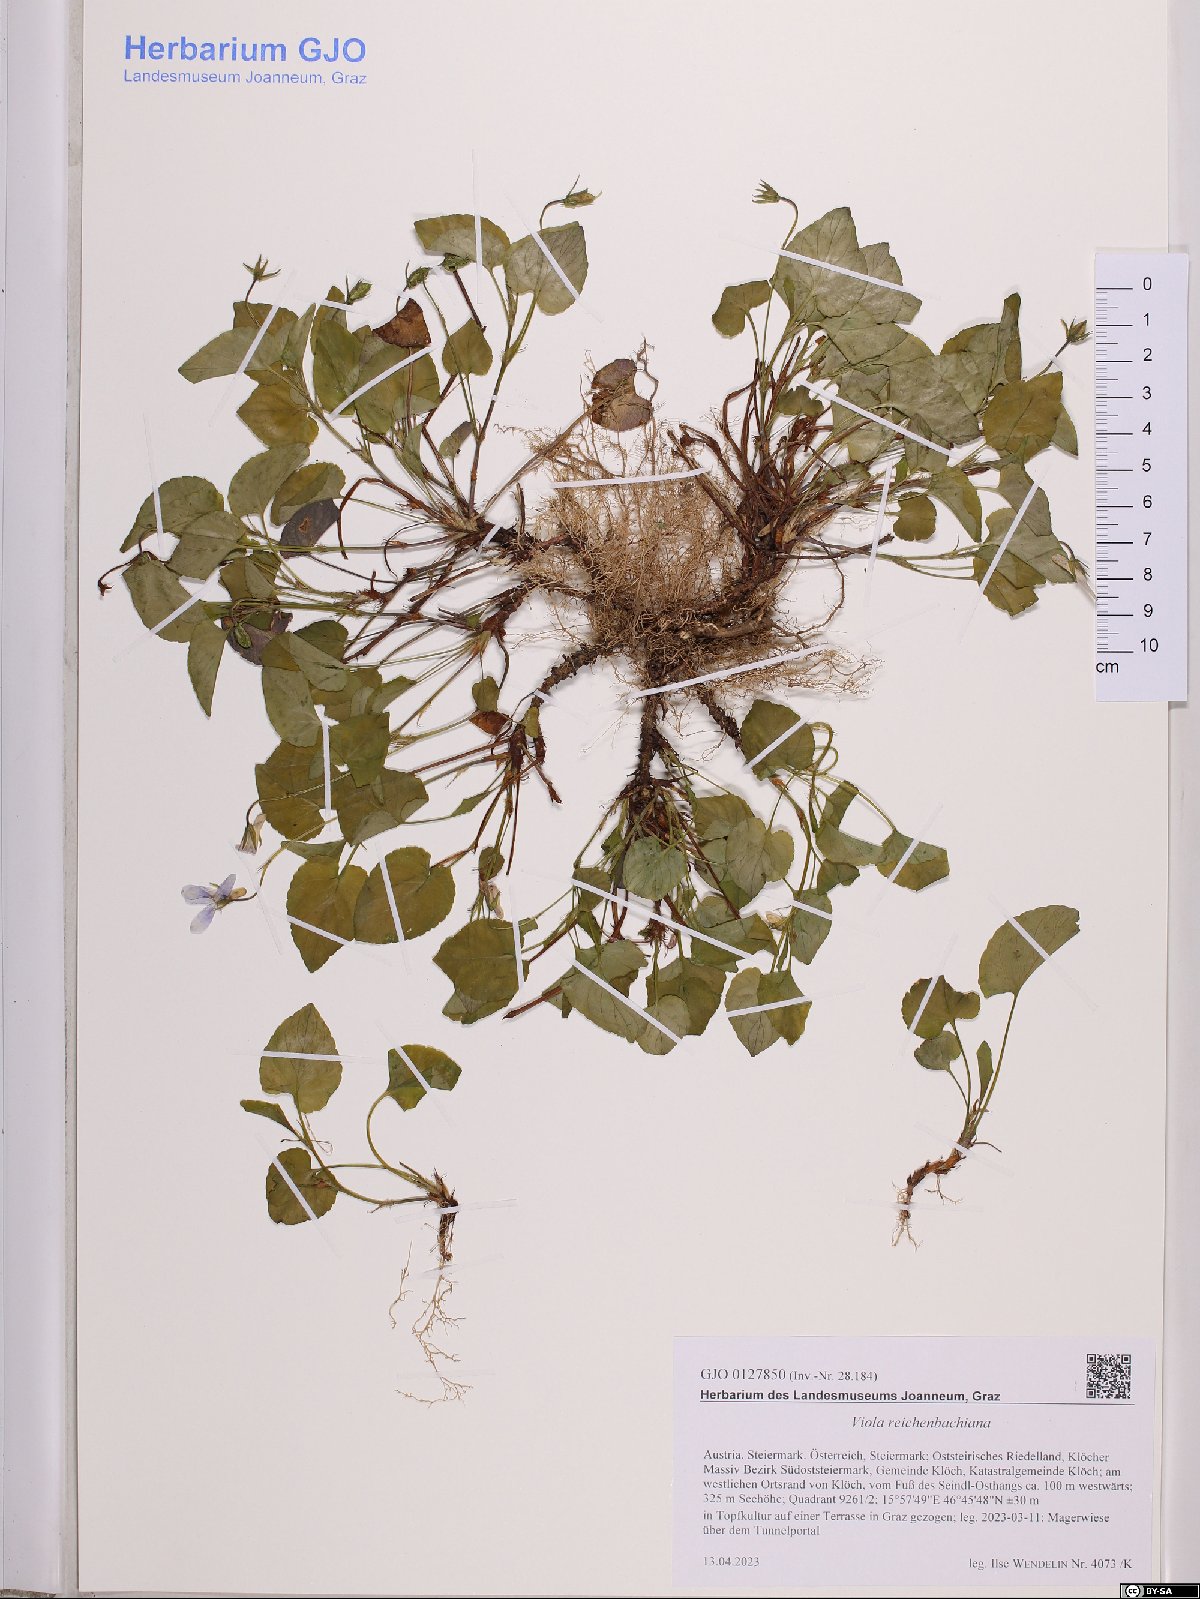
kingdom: Plantae
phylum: Tracheophyta
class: Magnoliopsida
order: Malpighiales
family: Violaceae
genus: Viola
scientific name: Viola reichenbachiana
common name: Early dog-violet
